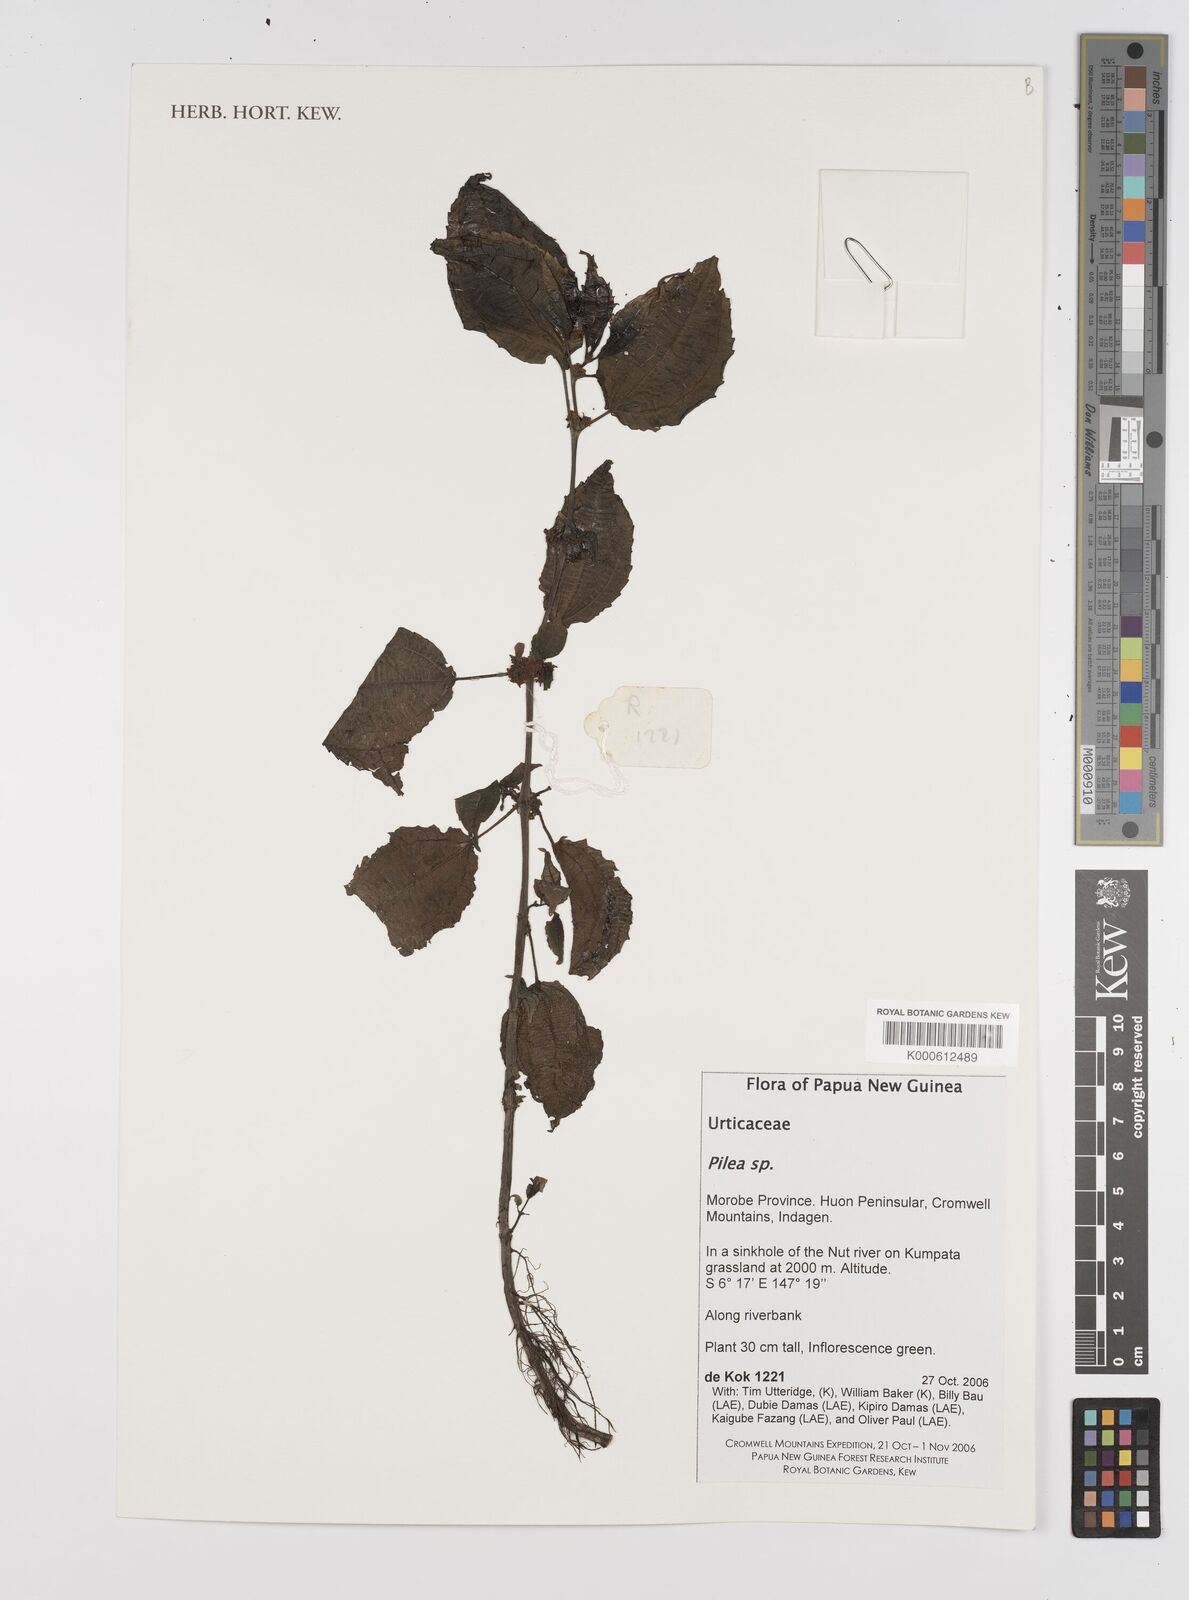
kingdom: Plantae
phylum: Tracheophyta
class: Magnoliopsida
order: Rosales
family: Urticaceae
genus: Pilea
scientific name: Pilea
